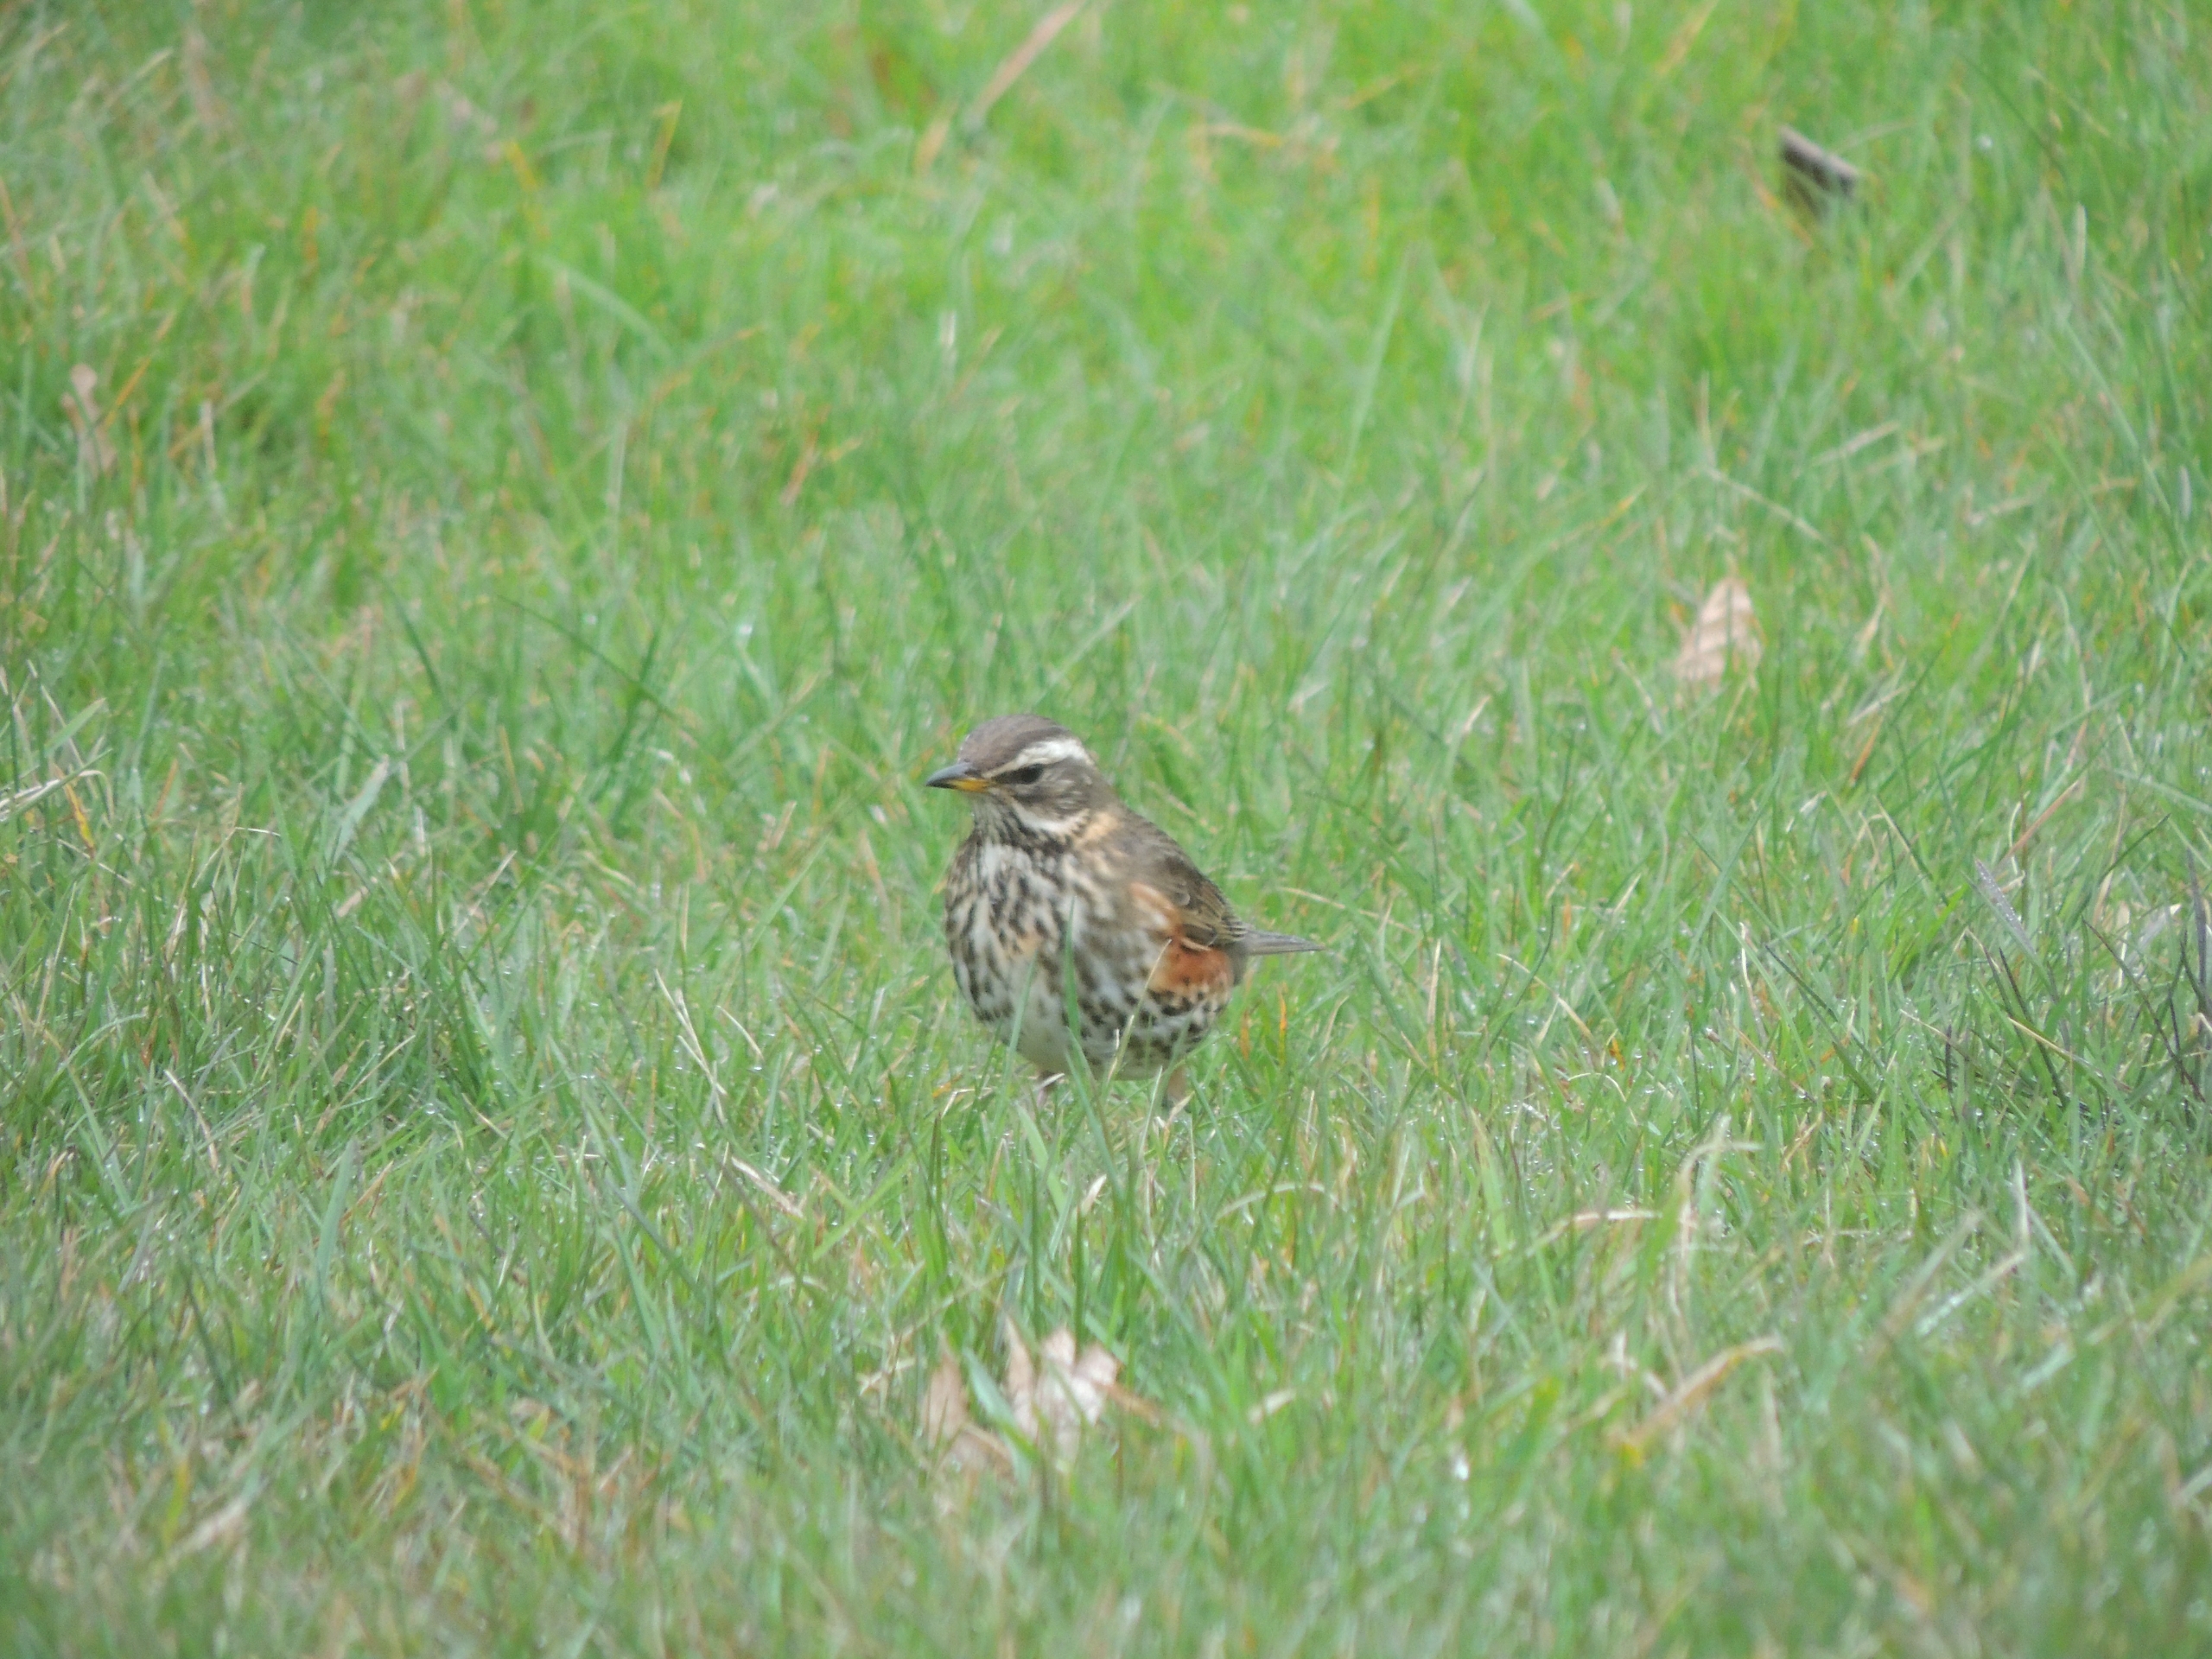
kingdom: Animalia
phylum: Chordata
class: Aves
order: Passeriformes
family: Turdidae
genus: Turdus
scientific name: Turdus iliacus
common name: Vindrossel
